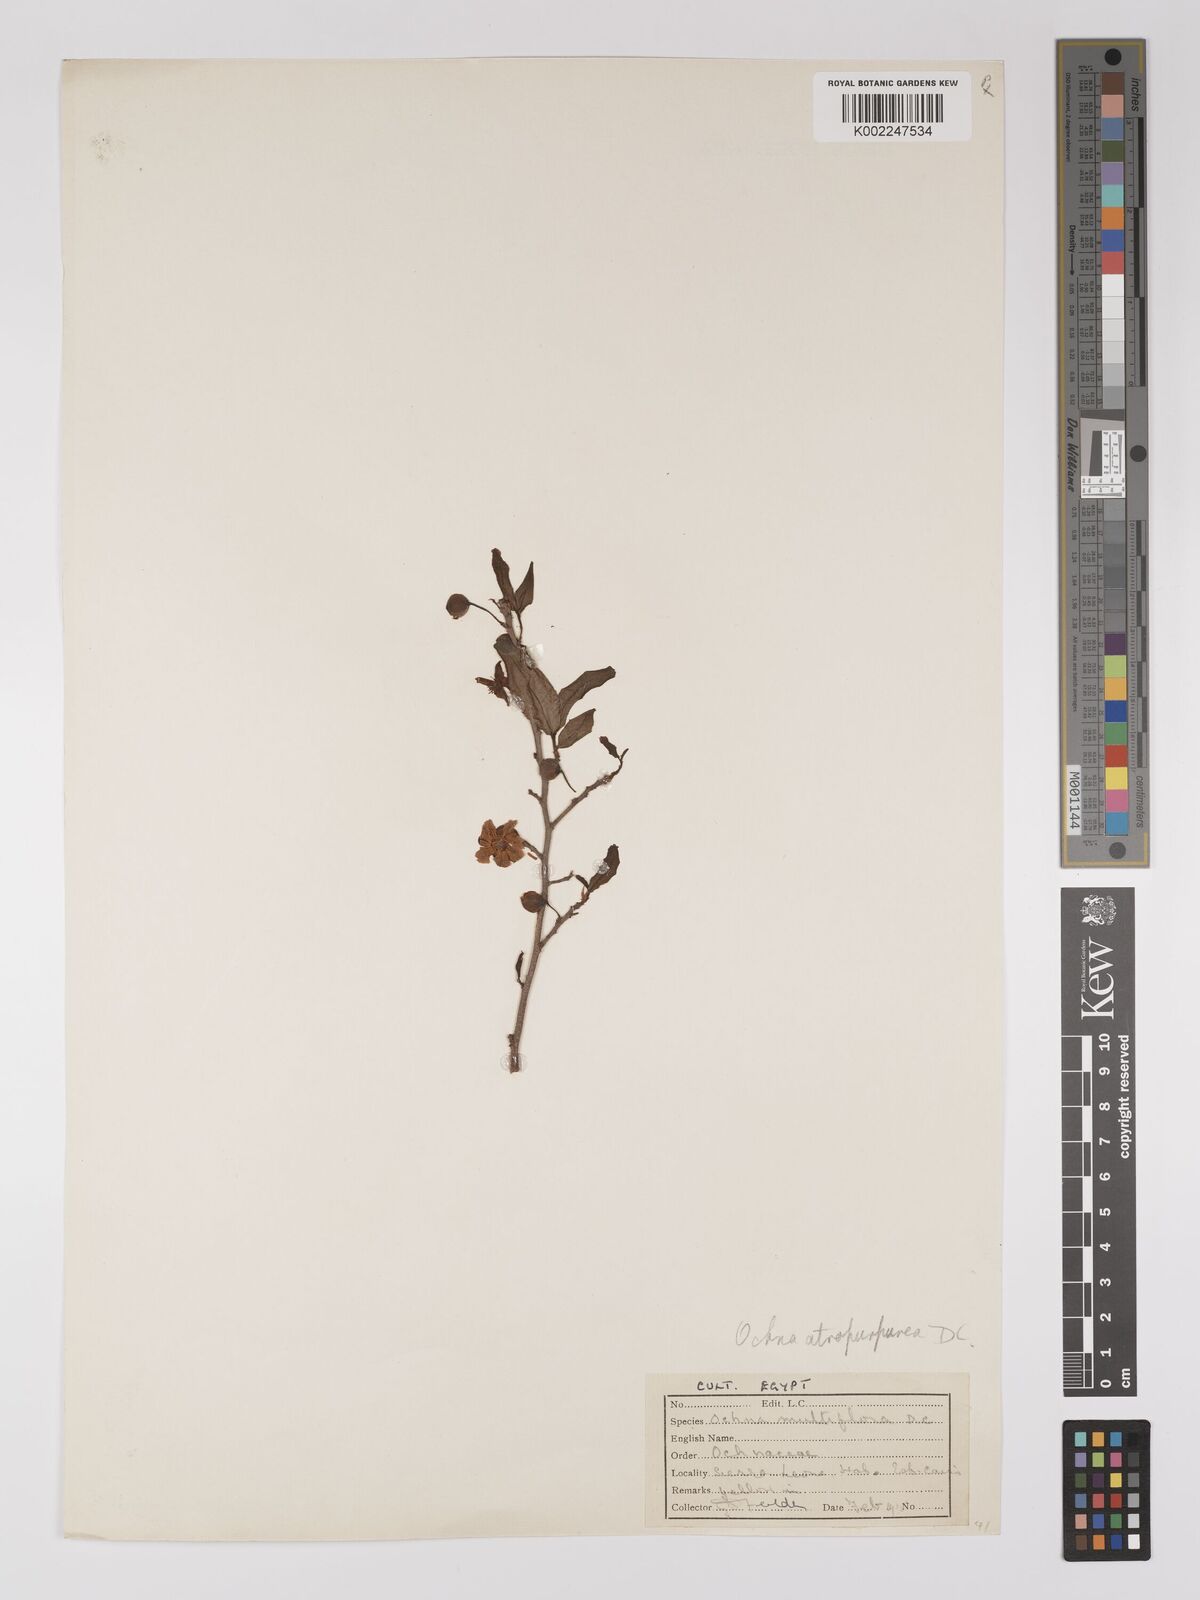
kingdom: Plantae
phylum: Tracheophyta
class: Magnoliopsida
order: Malpighiales
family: Ochnaceae
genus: Ochna
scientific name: Ochna atropurpurea
